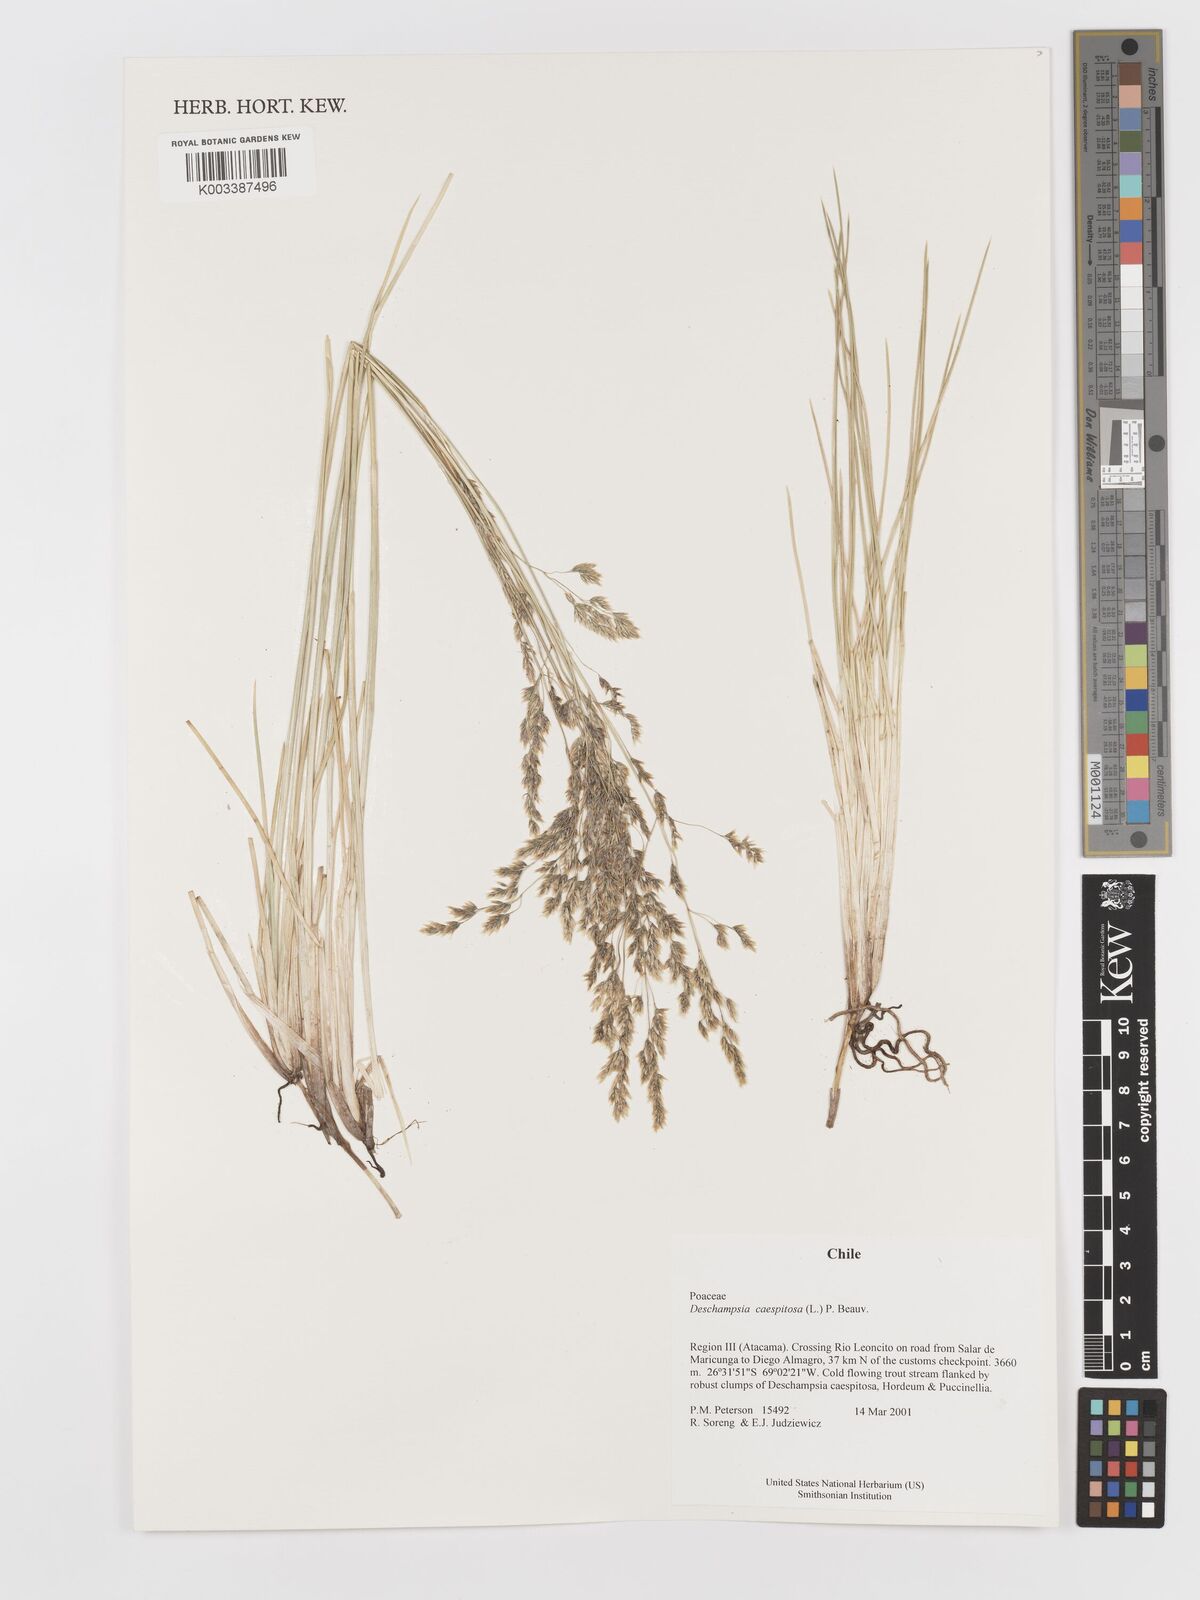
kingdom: Plantae
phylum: Tracheophyta
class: Liliopsida
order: Poales
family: Poaceae
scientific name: Poaceae
